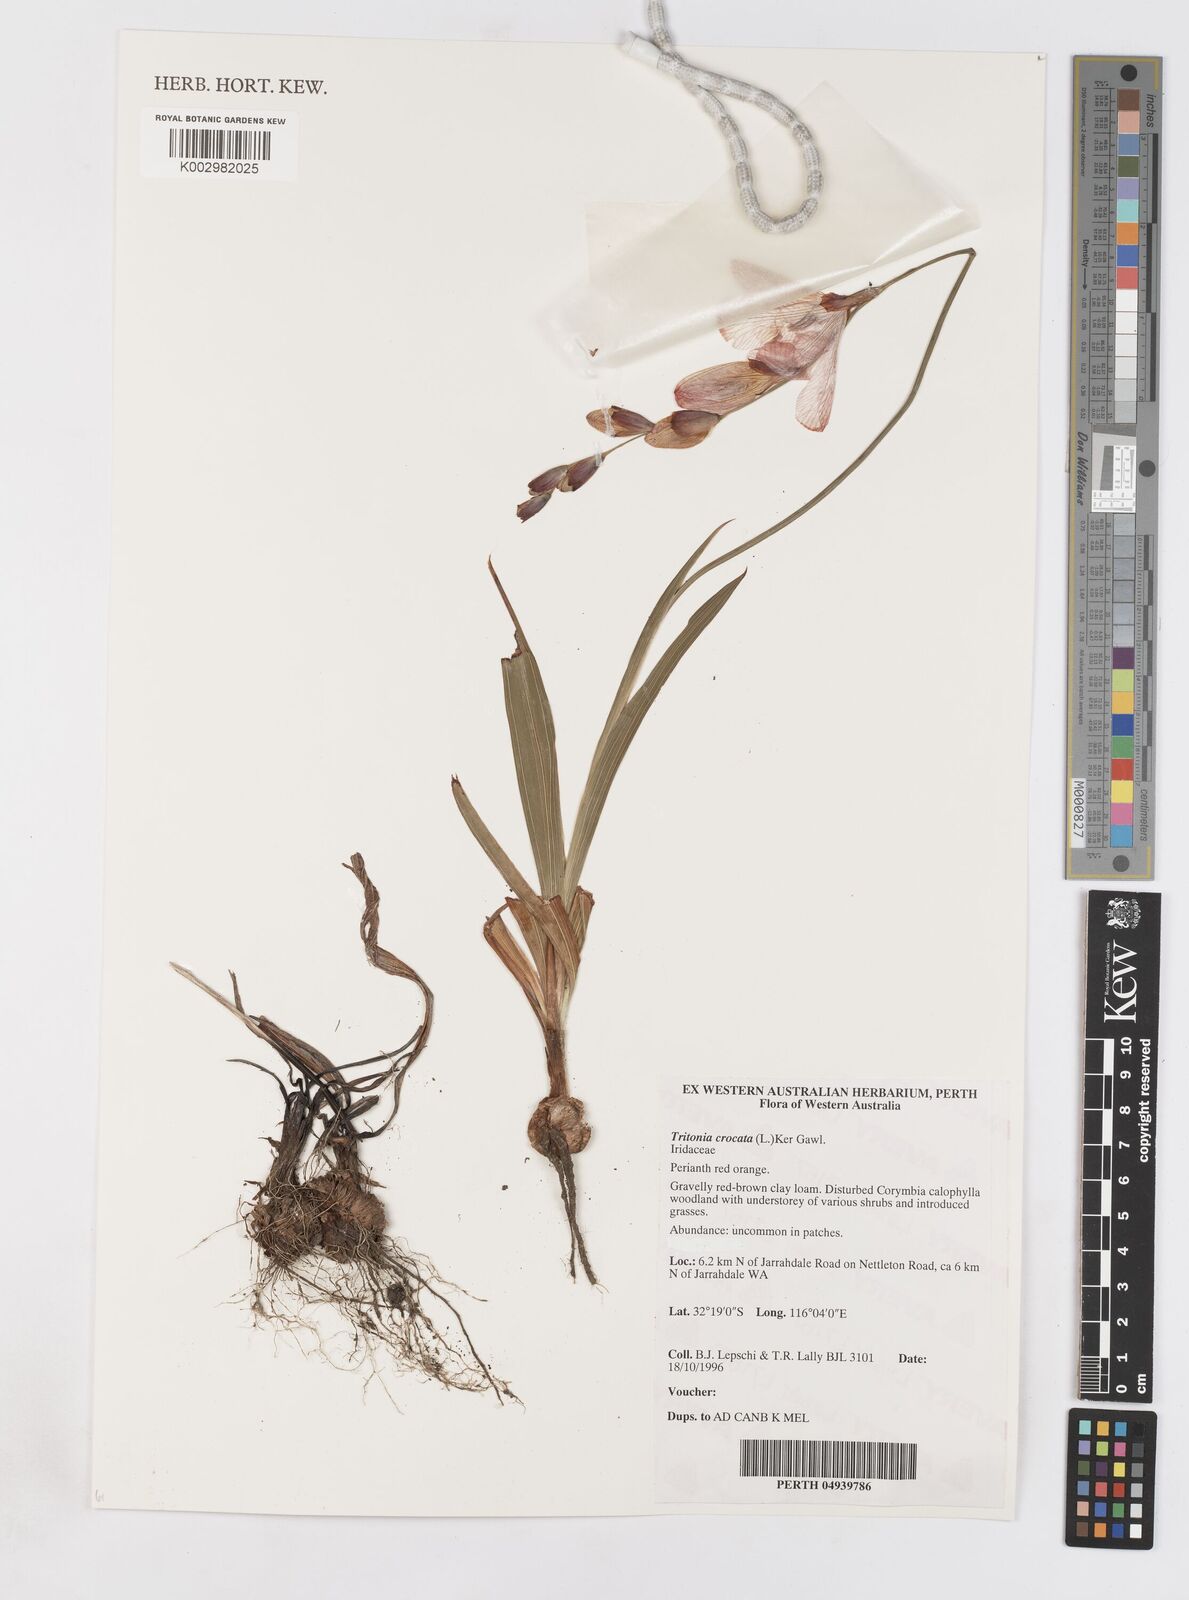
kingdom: Plantae
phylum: Tracheophyta
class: Liliopsida
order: Asparagales
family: Iridaceae
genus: Tritonia
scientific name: Tritonia crocata
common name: Flame-freesia
